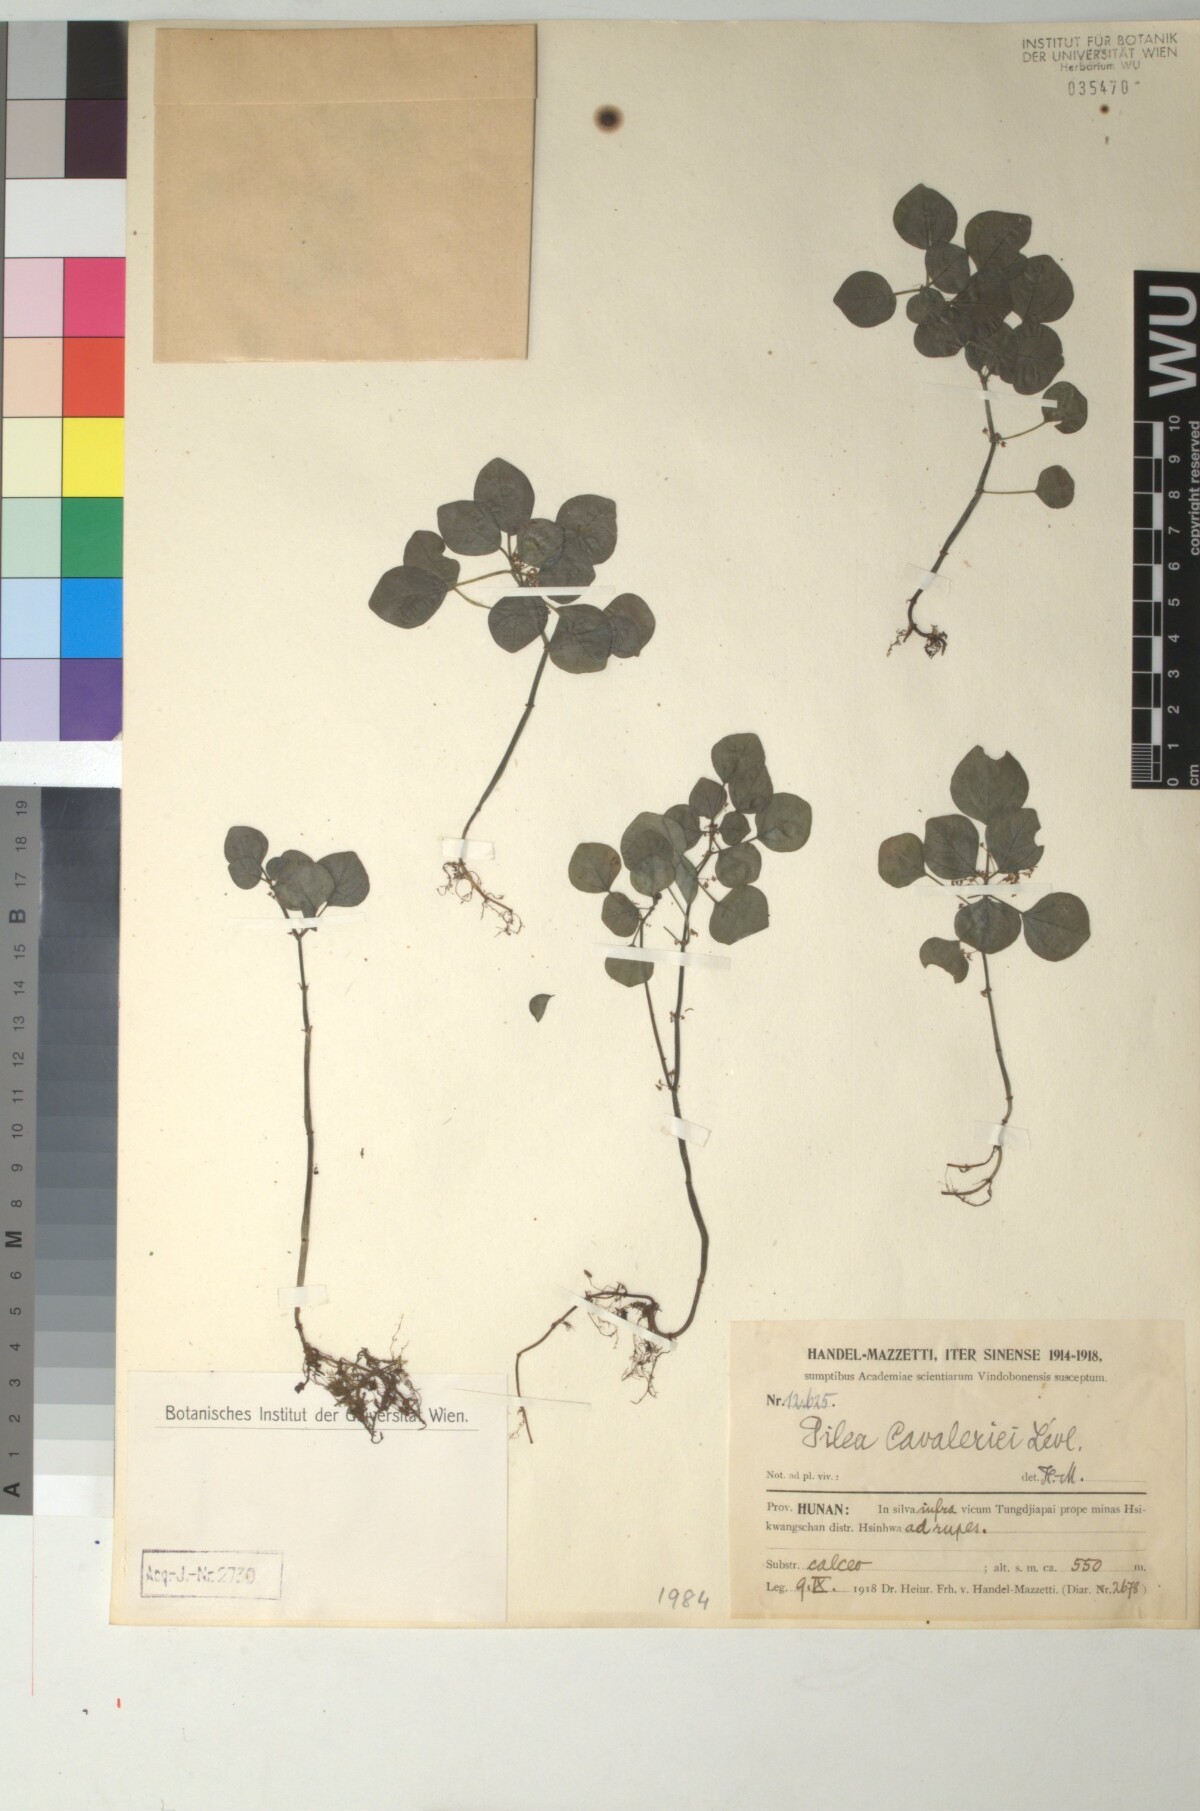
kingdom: Plantae
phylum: Tracheophyta
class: Magnoliopsida
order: Rosales
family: Urticaceae
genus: Pilea
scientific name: Pilea cavaleriei
